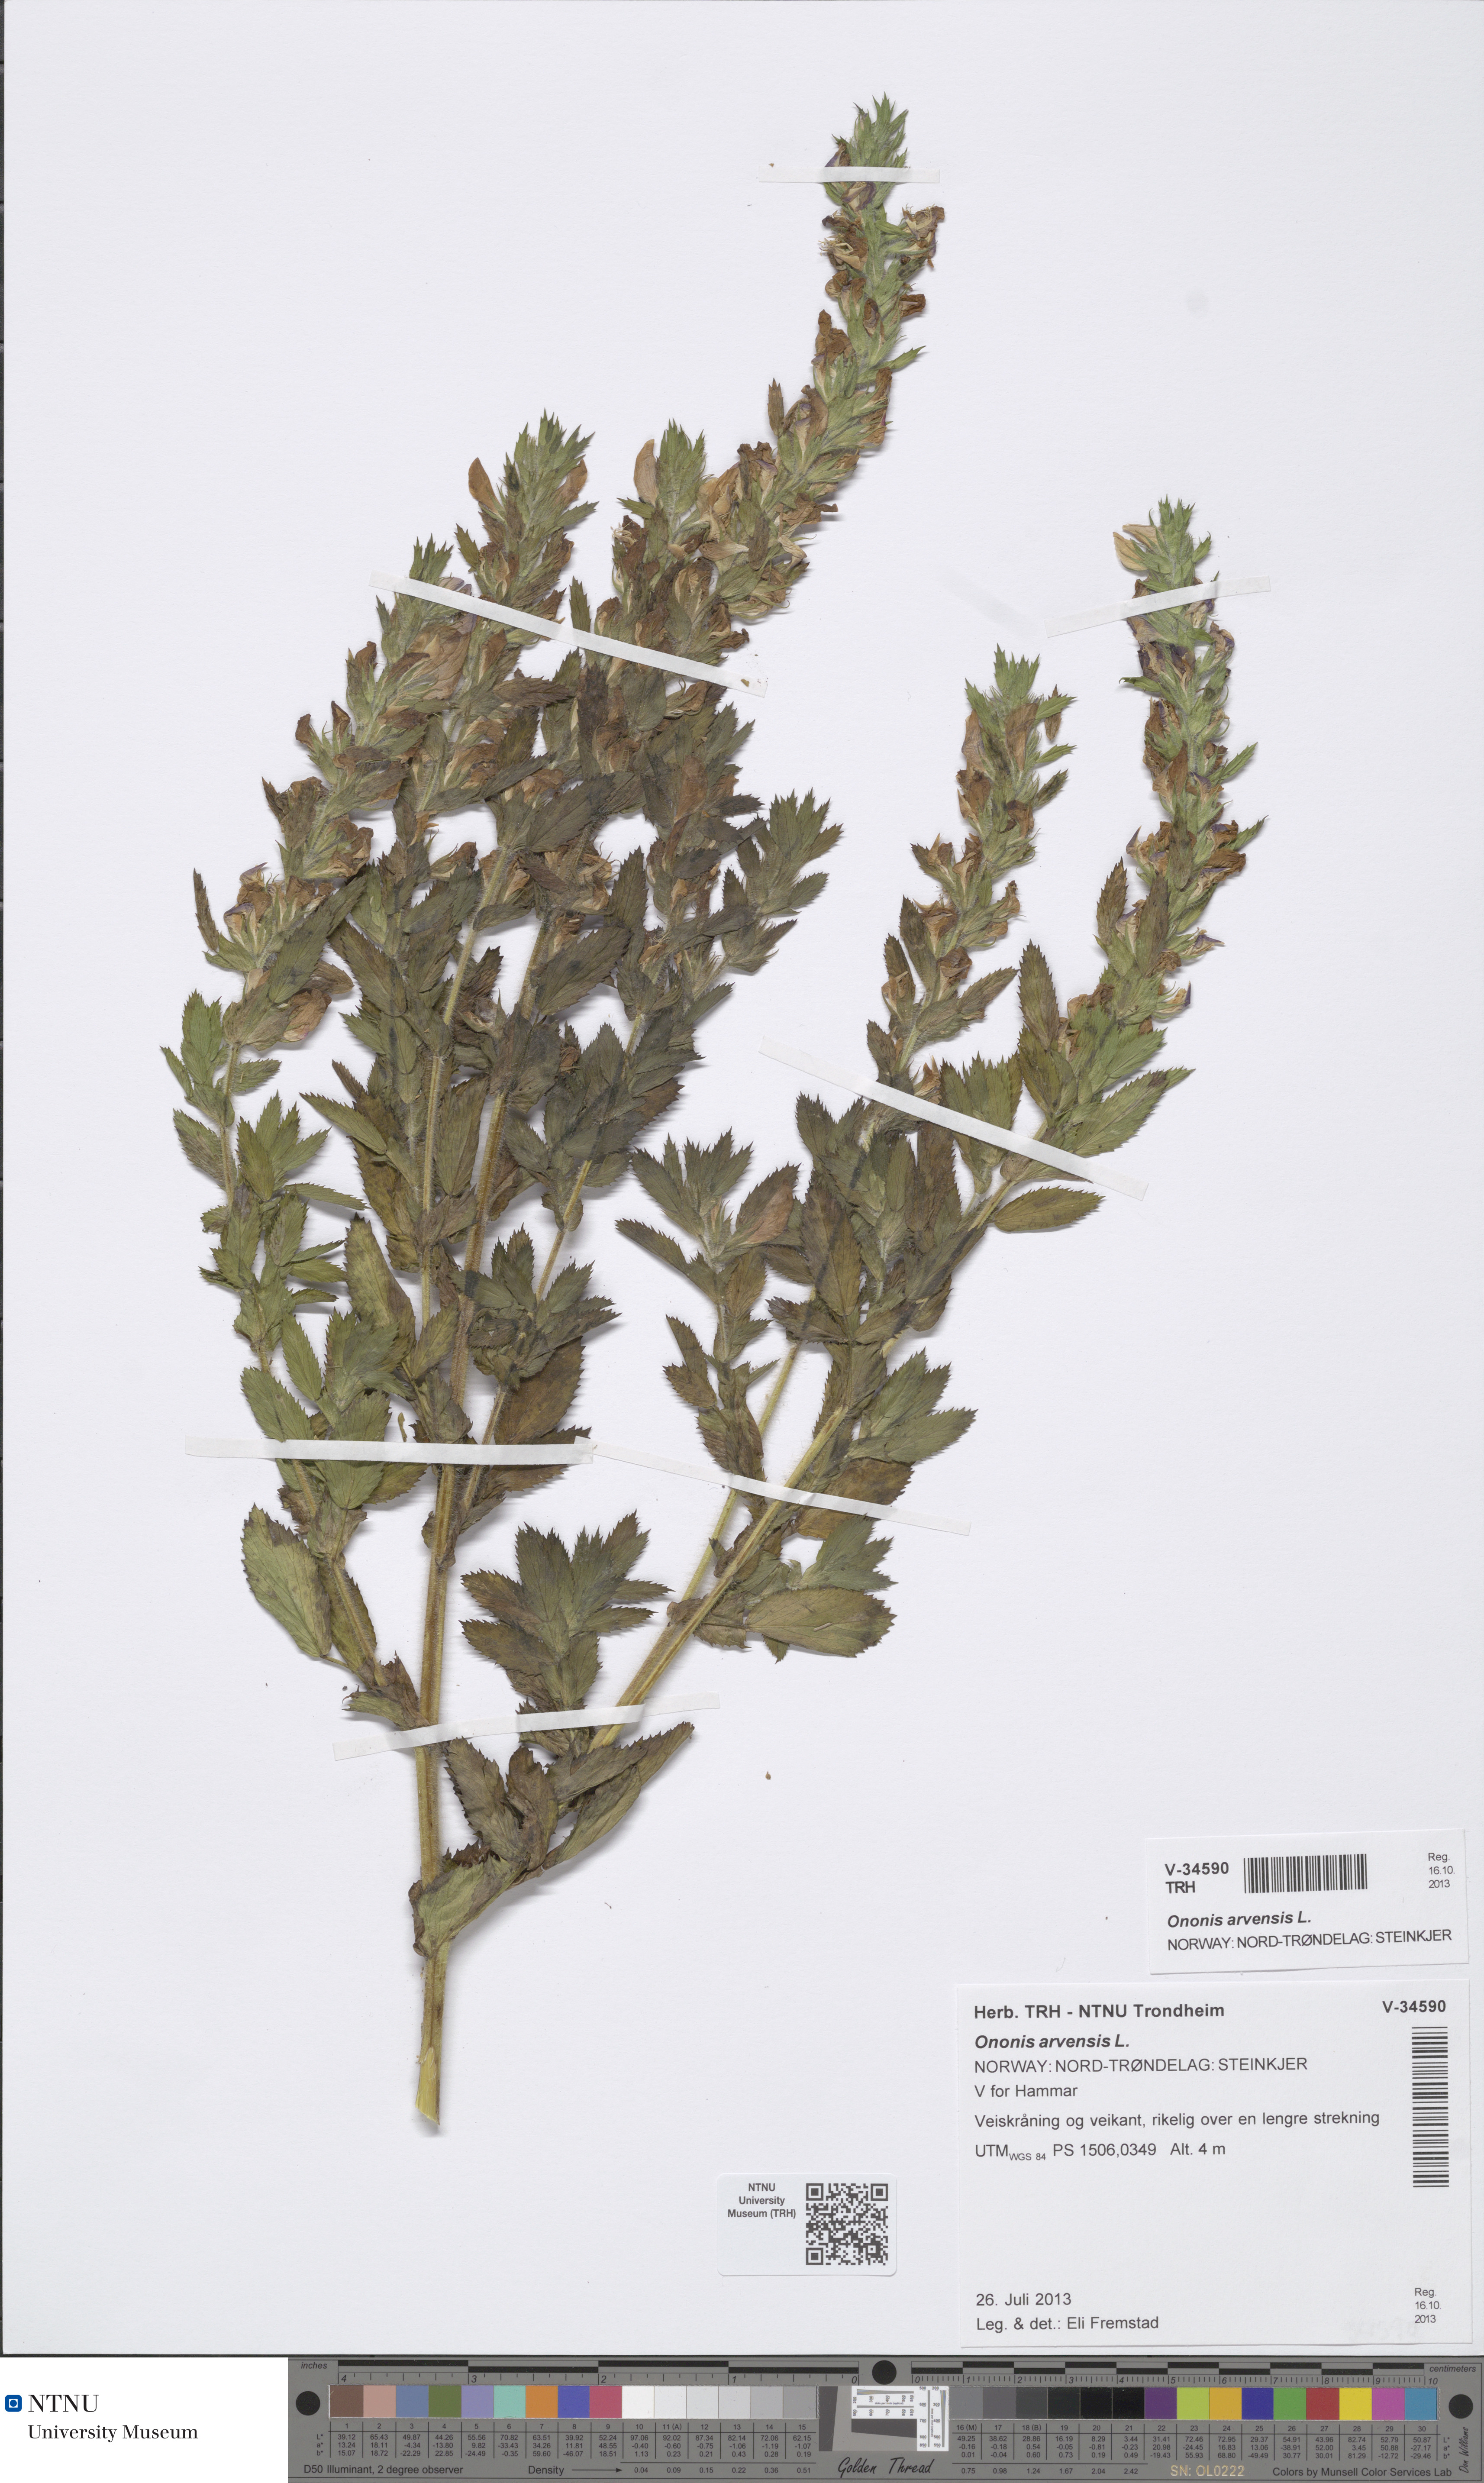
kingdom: Plantae
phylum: Tracheophyta
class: Magnoliopsida
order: Fabales
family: Fabaceae
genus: Ononis
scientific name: Ononis arvensis
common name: Field restharrow
